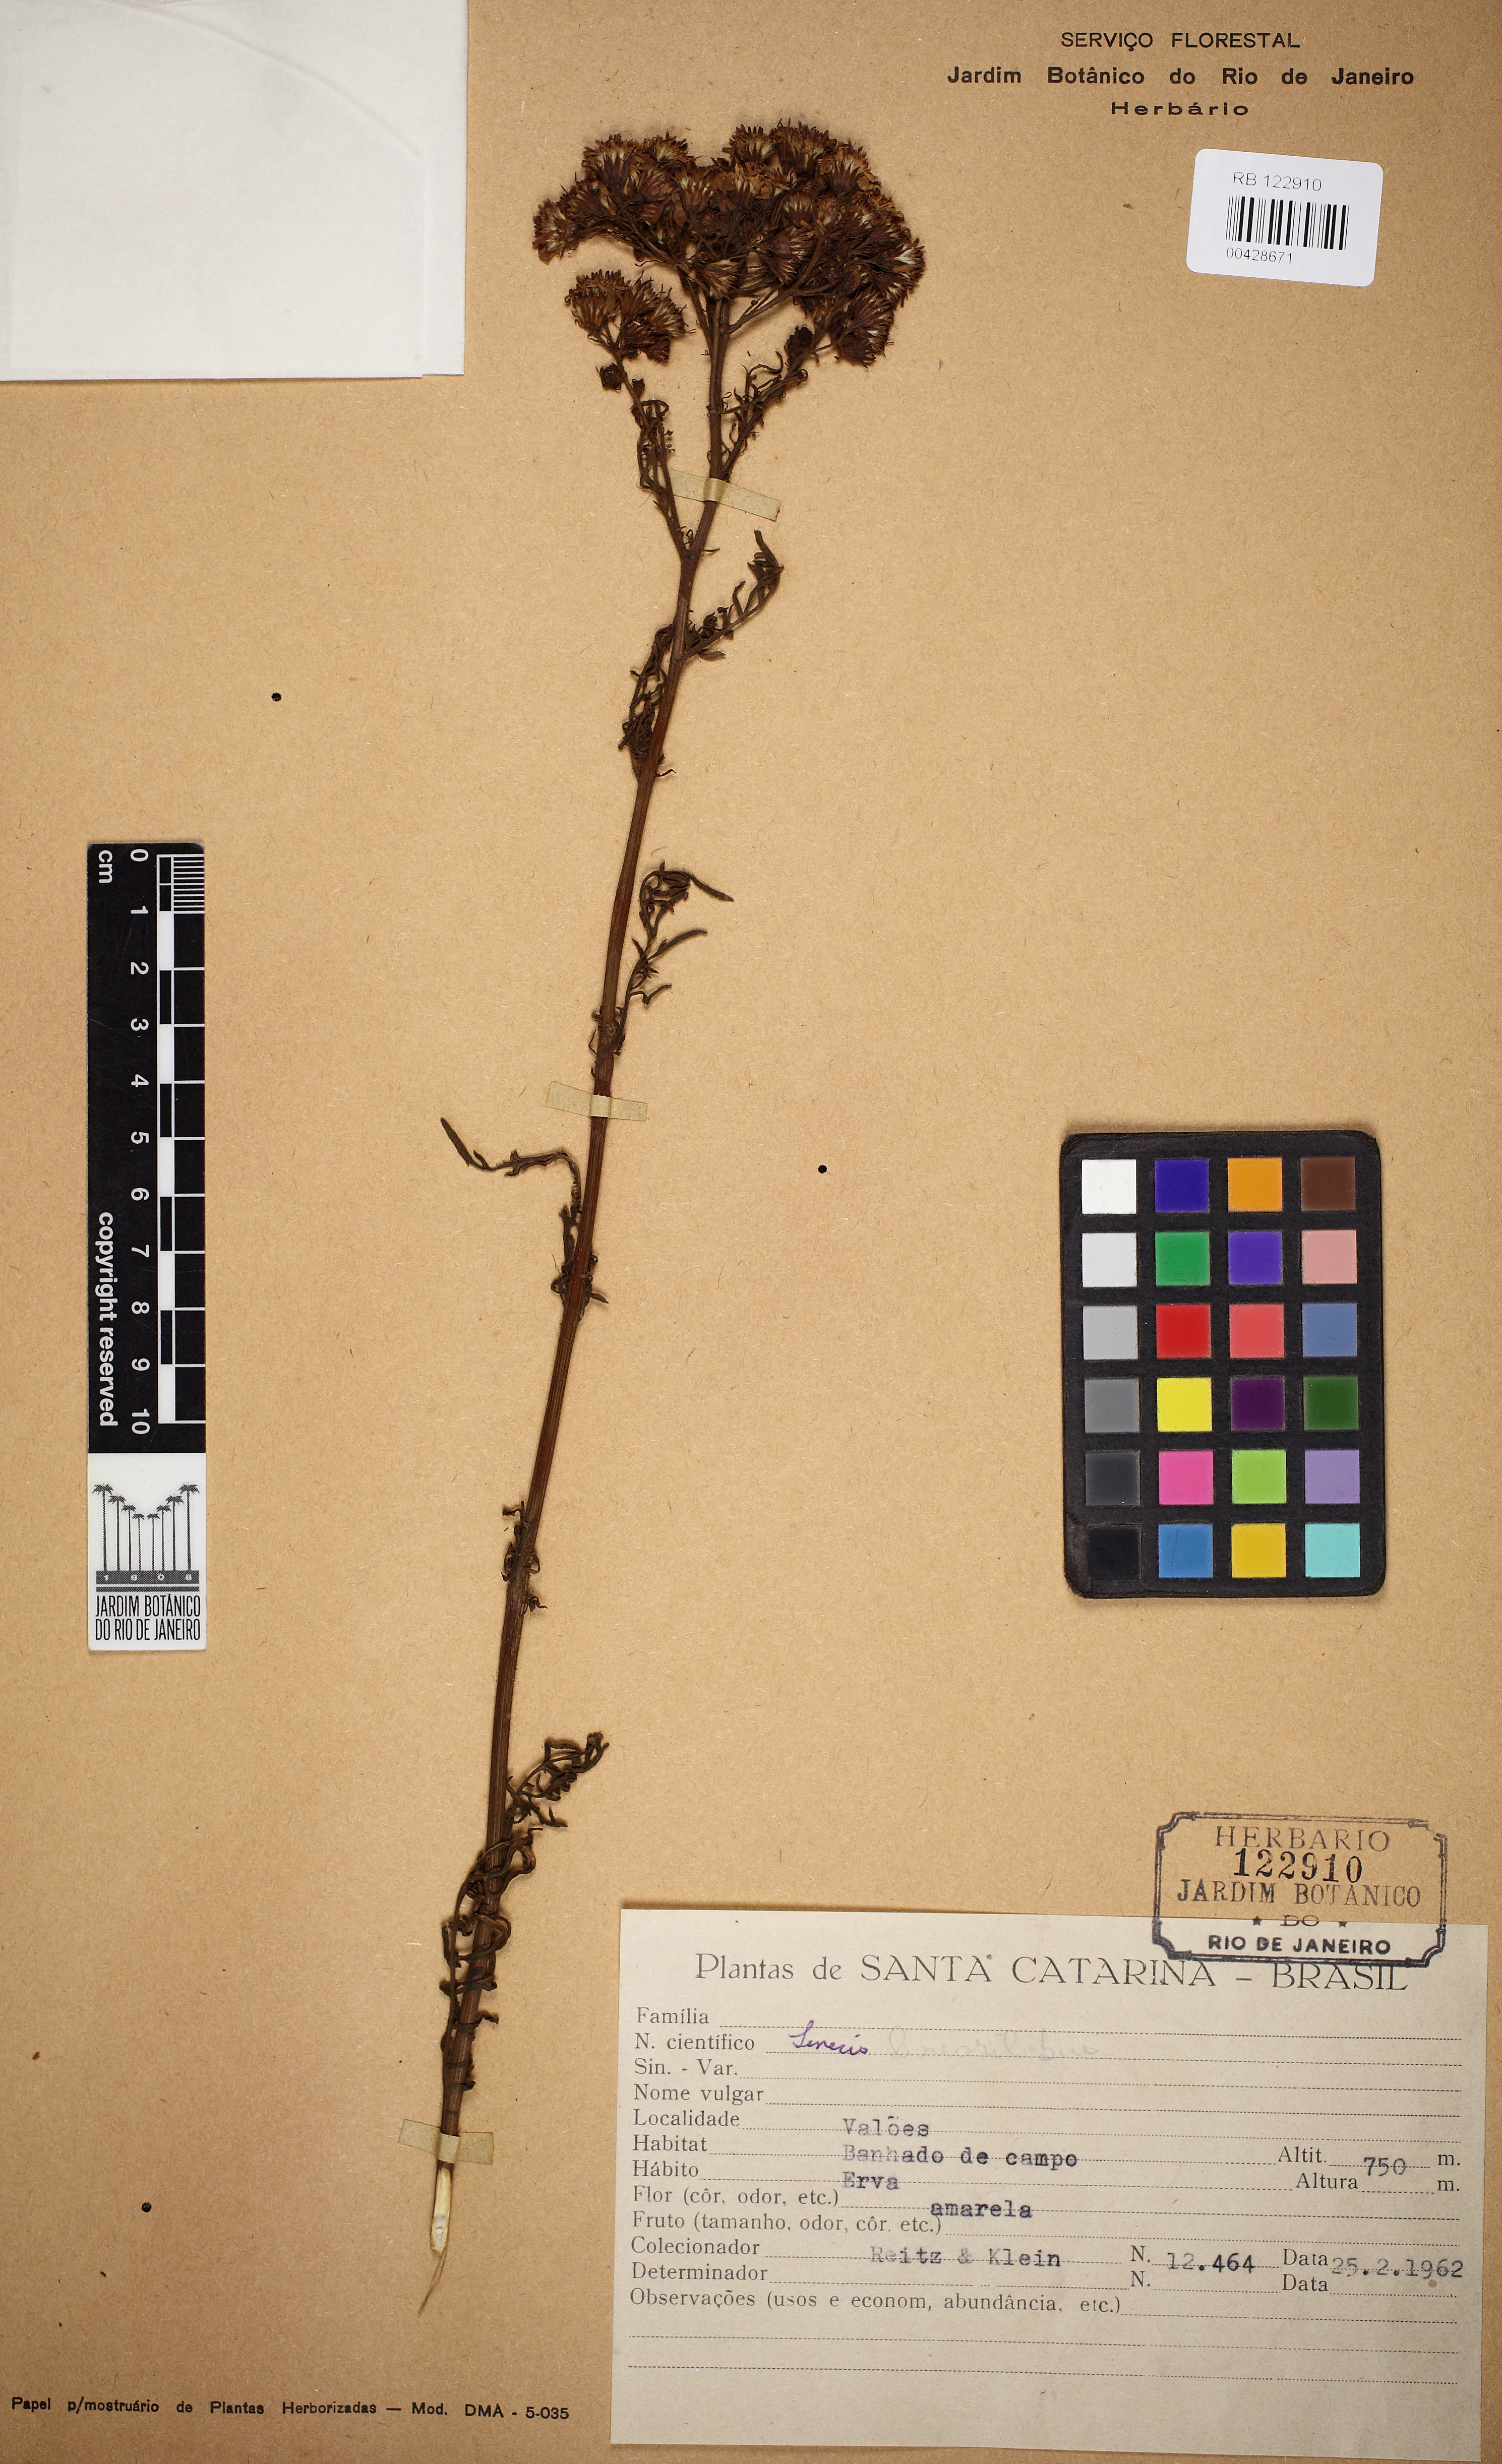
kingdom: Plantae
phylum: Tracheophyta
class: Magnoliopsida
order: Asterales
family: Asteraceae
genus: Senecio
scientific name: Senecio linearilobus
